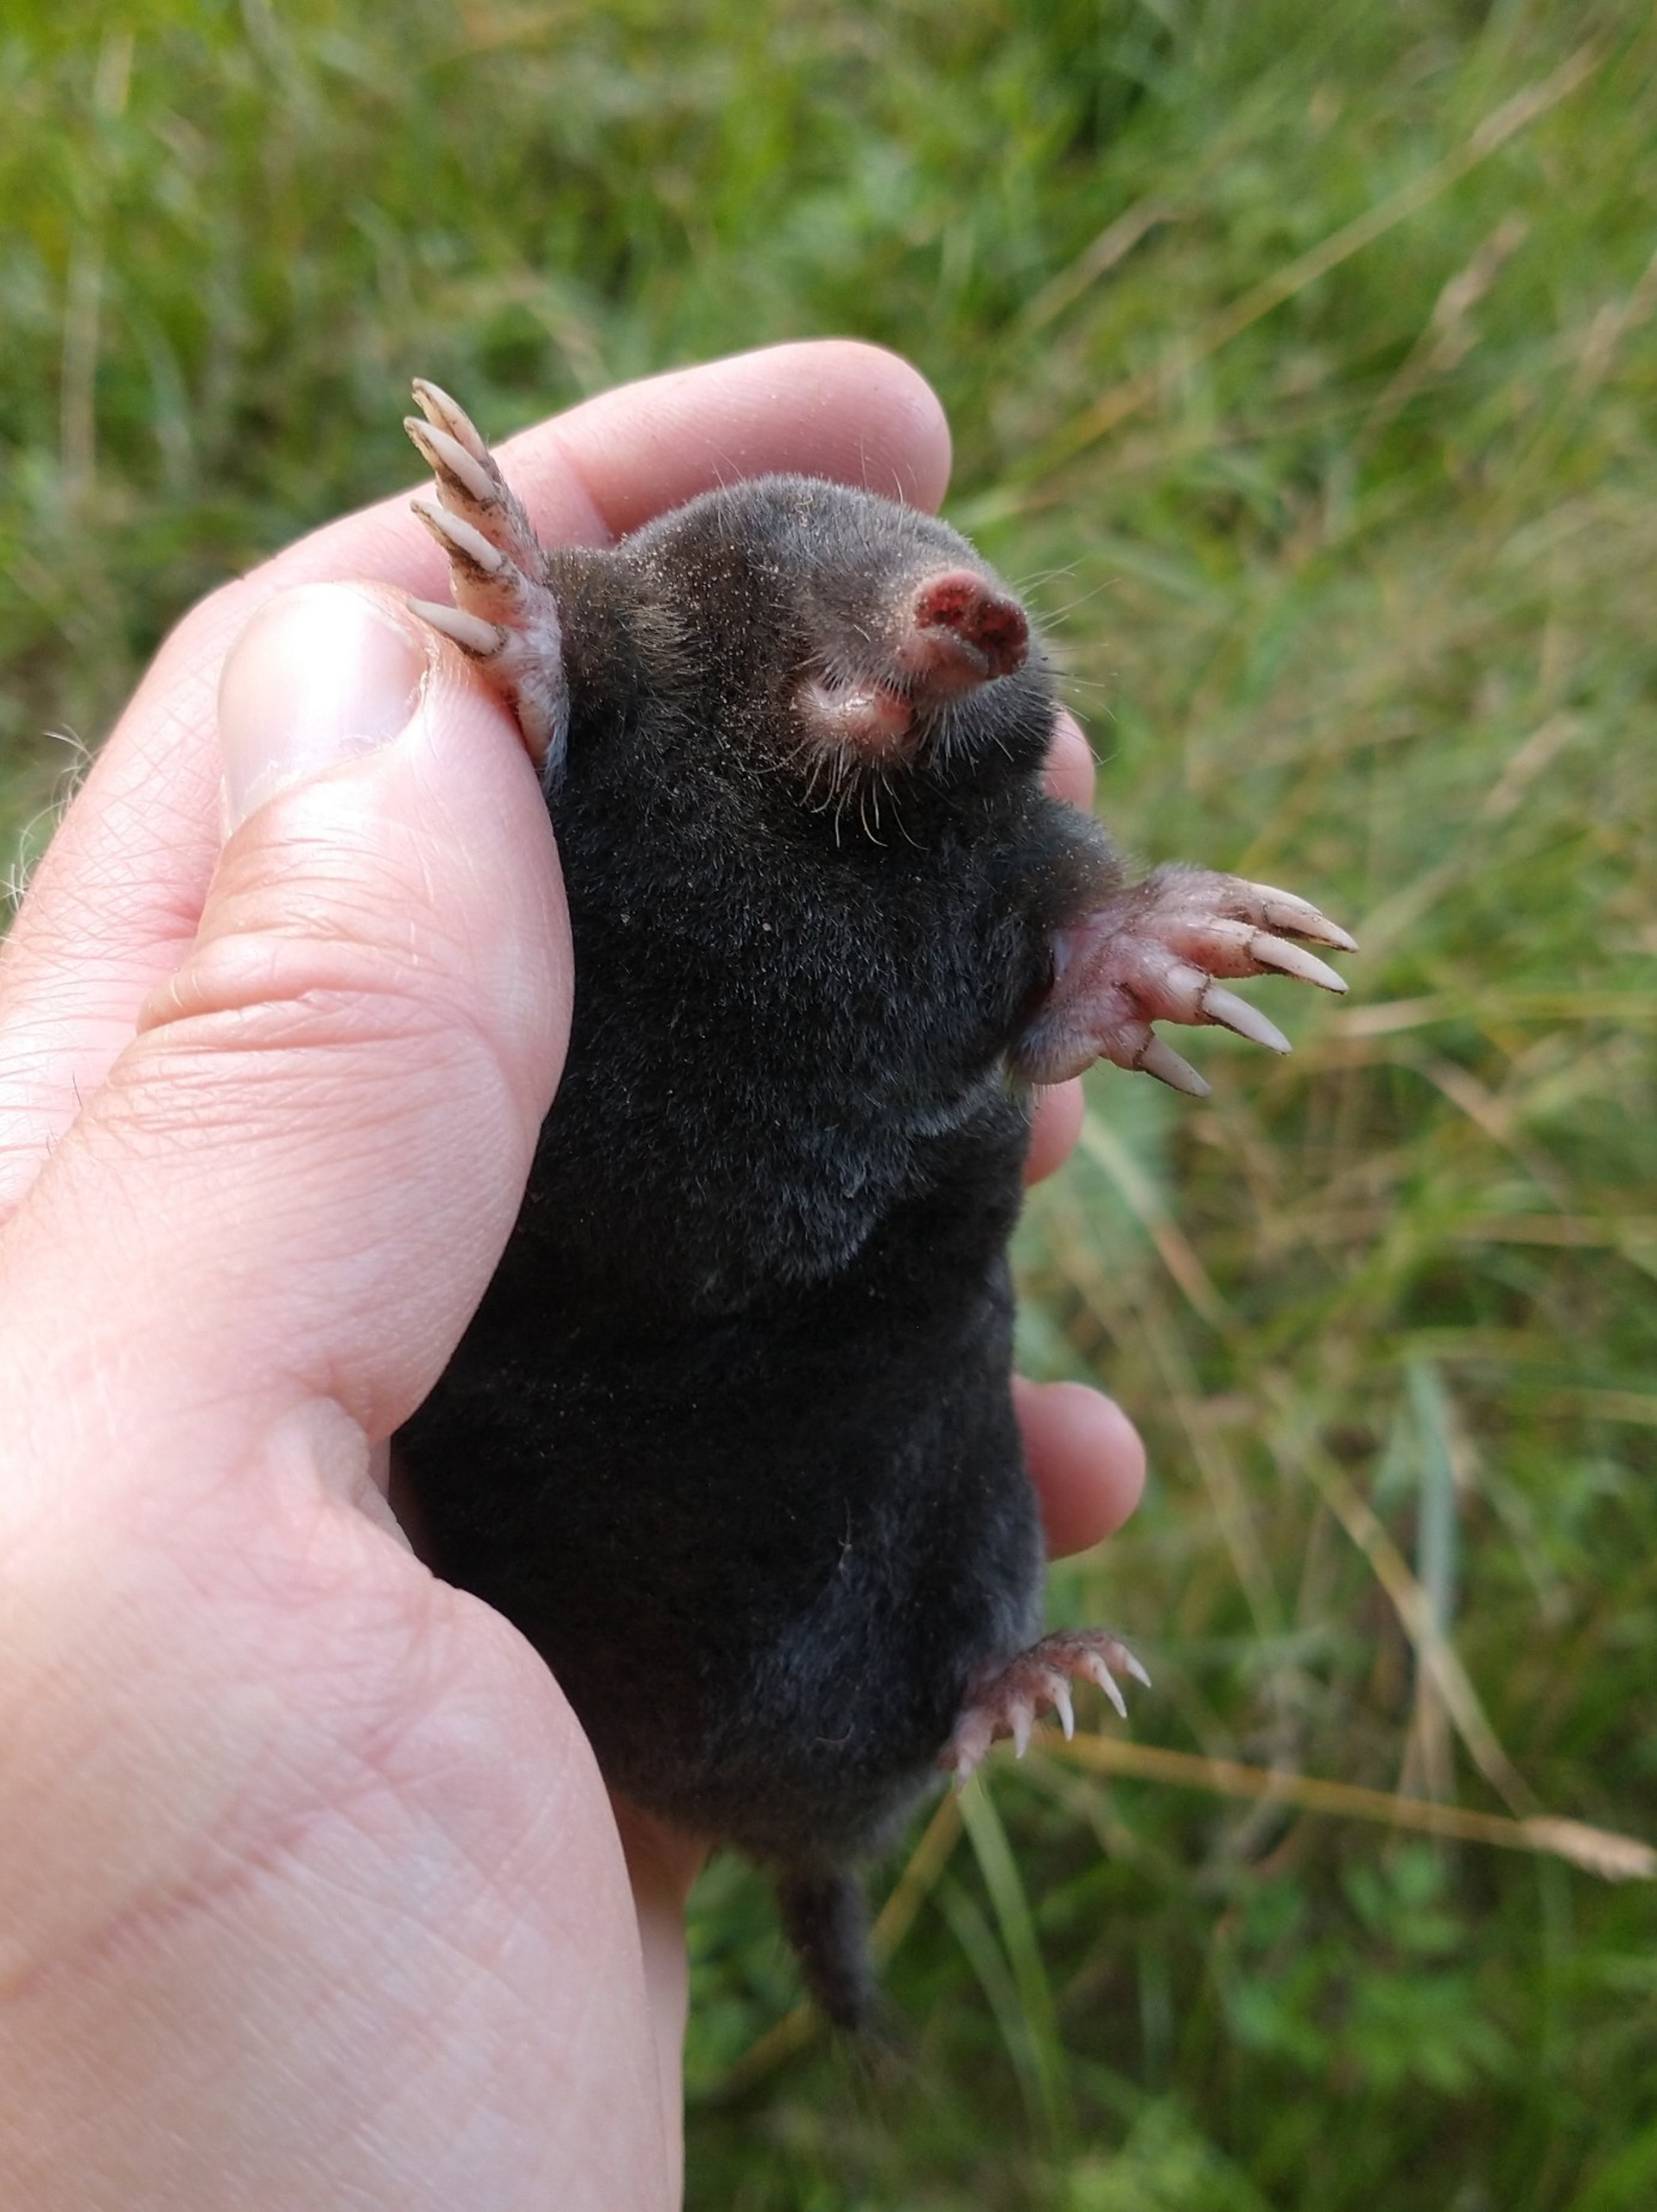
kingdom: Animalia
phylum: Chordata
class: Mammalia
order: Soricomorpha
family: Talpidae
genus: Talpa
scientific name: Talpa europaea
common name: Muldvarp
